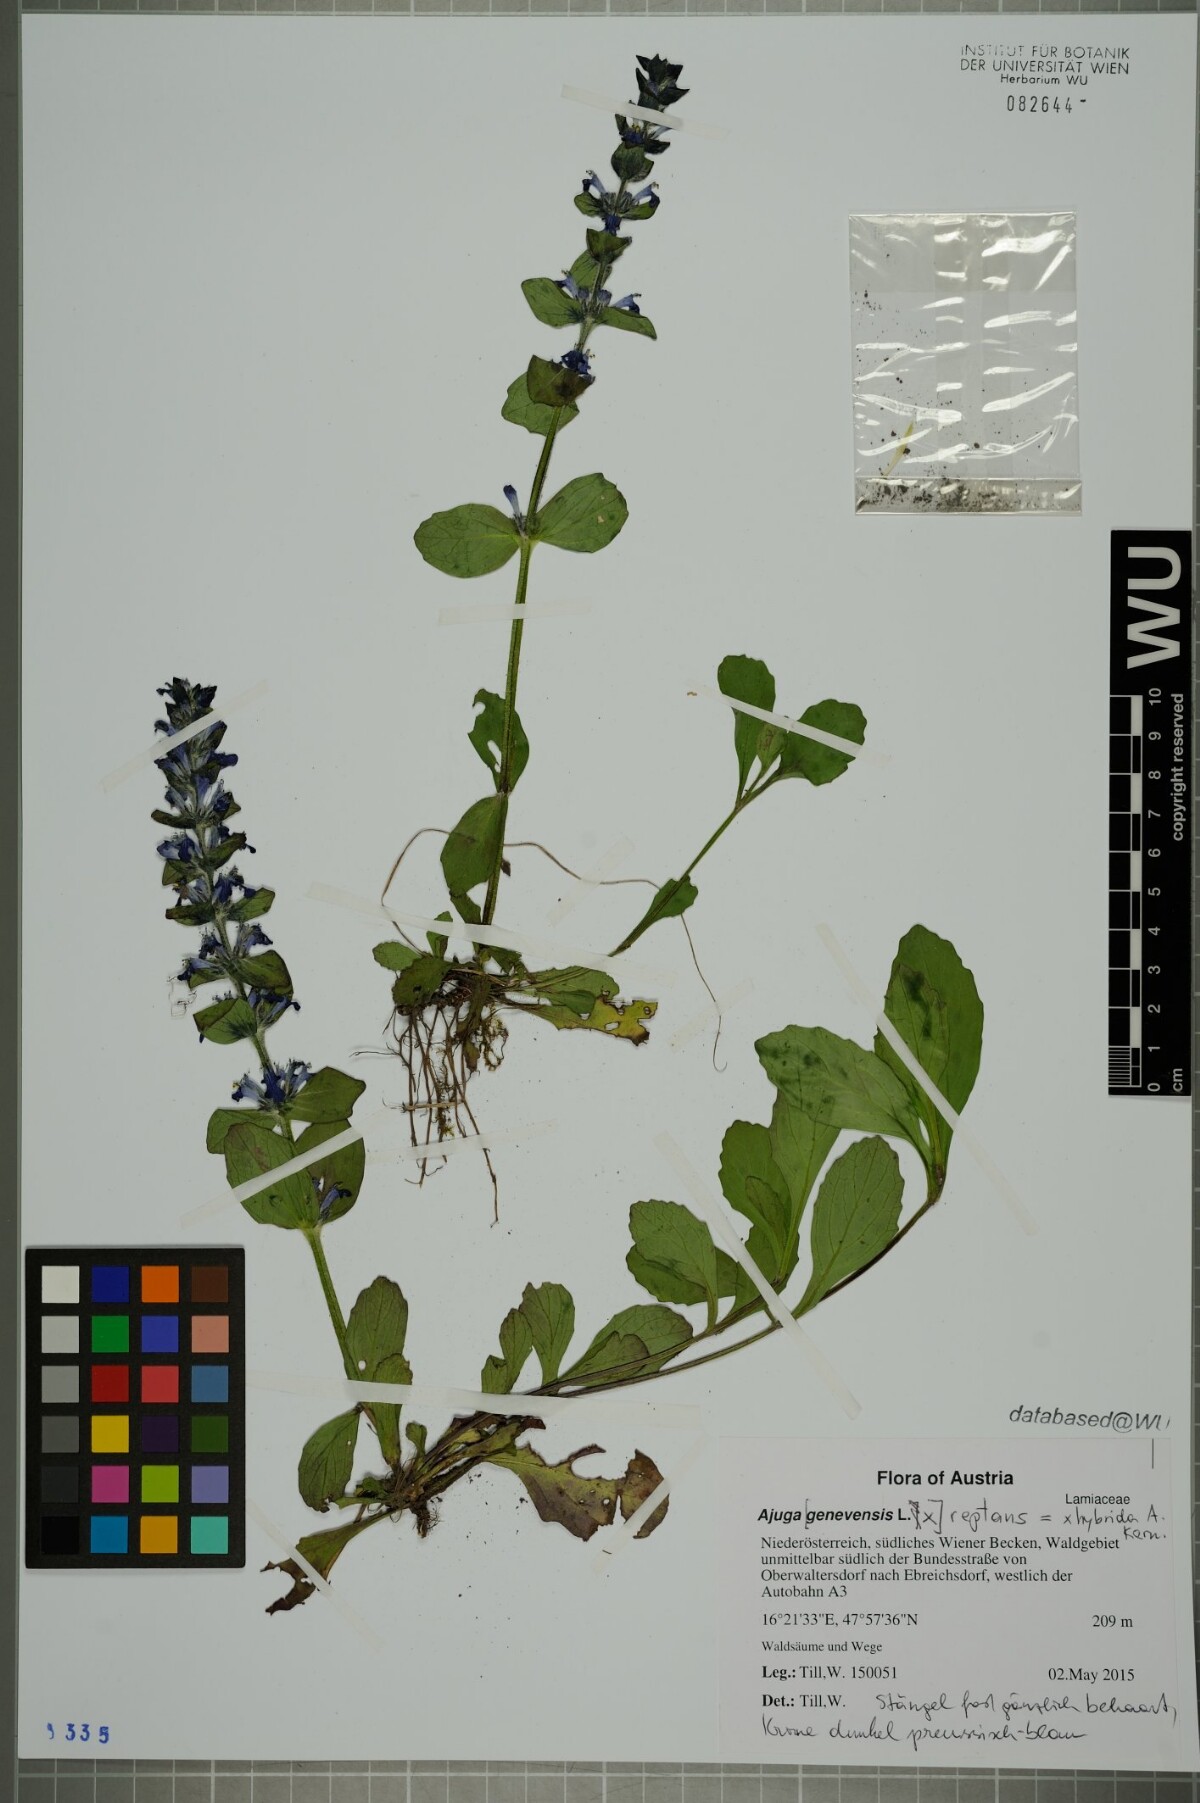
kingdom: Plantae
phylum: Tracheophyta
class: Magnoliopsida
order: Lamiales
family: Lamiaceae
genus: Ajuga
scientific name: Ajuga hybrida
